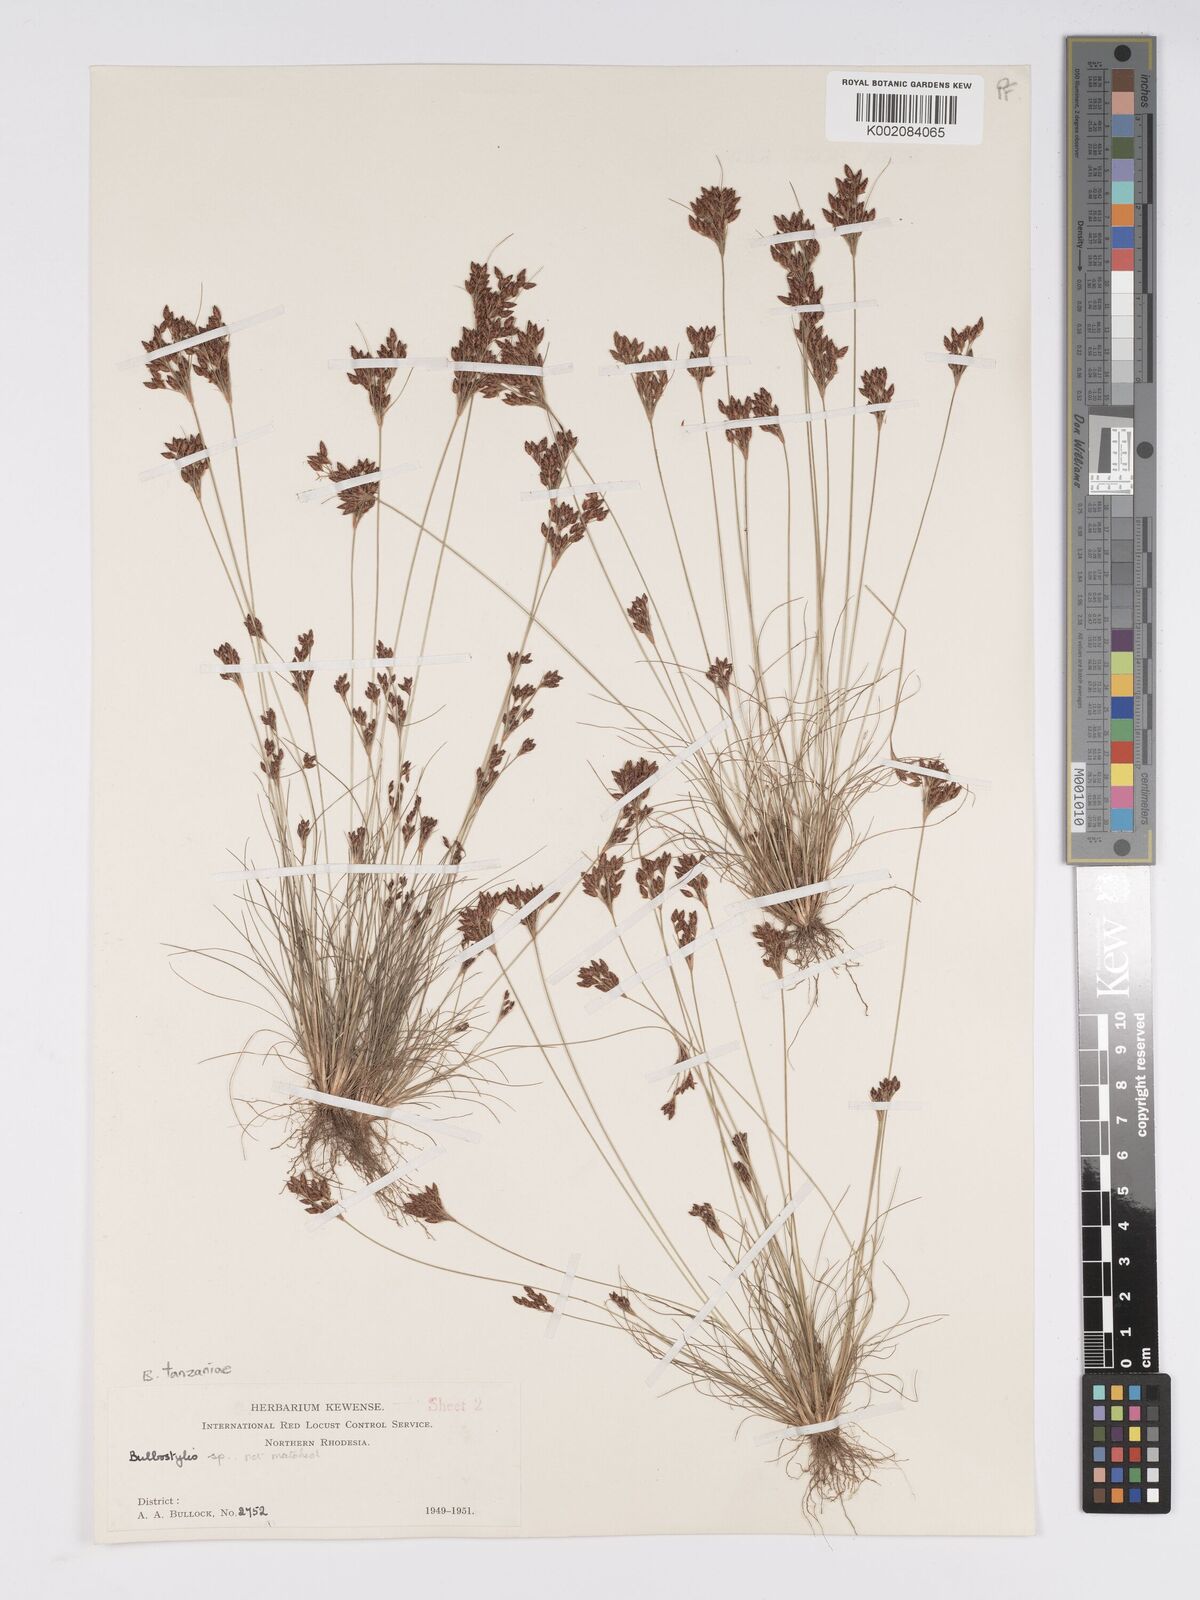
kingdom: Plantae
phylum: Tracheophyta
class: Liliopsida
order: Poales
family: Cyperaceae
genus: Bulbostylis
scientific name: Bulbostylis tanzaniae
